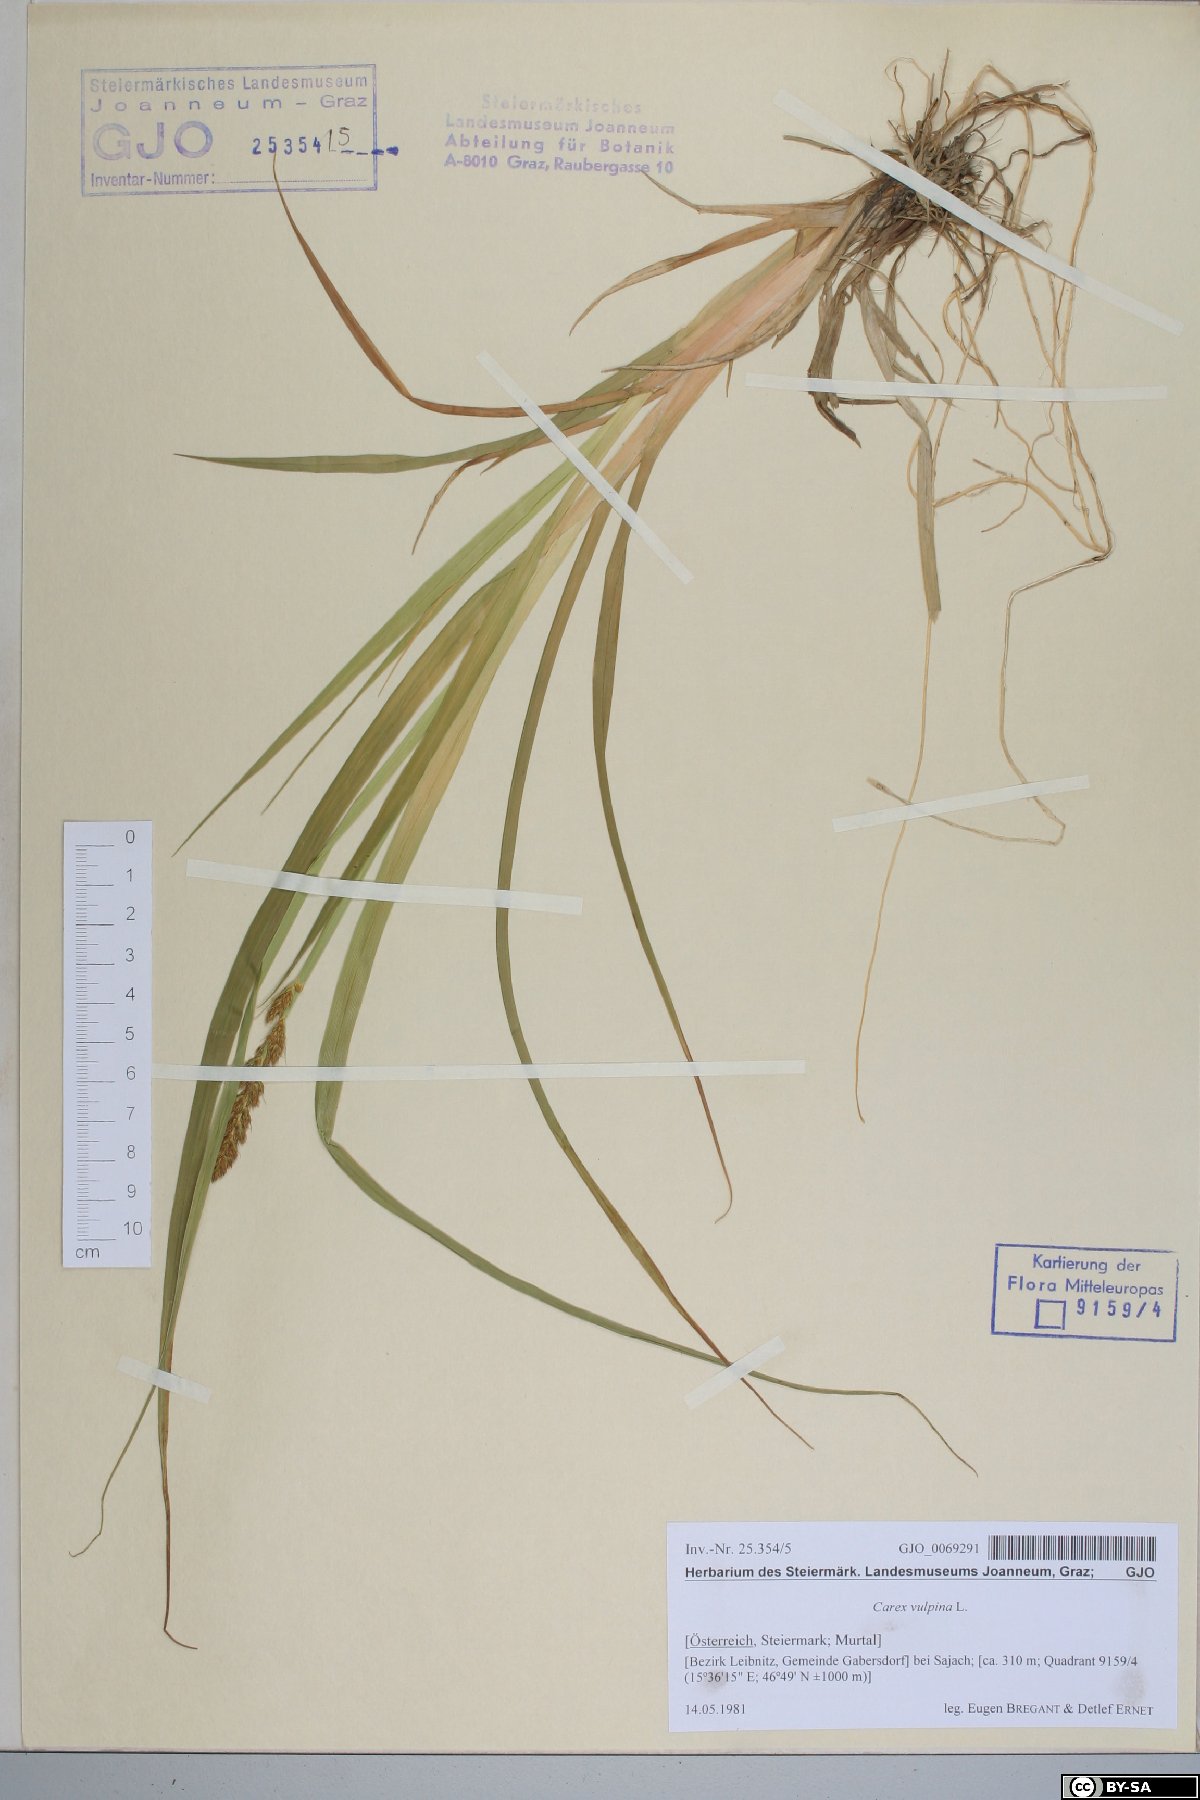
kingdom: Plantae
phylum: Tracheophyta
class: Liliopsida
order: Poales
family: Cyperaceae
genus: Carex
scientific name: Carex vulpina
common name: True fox-sedge
